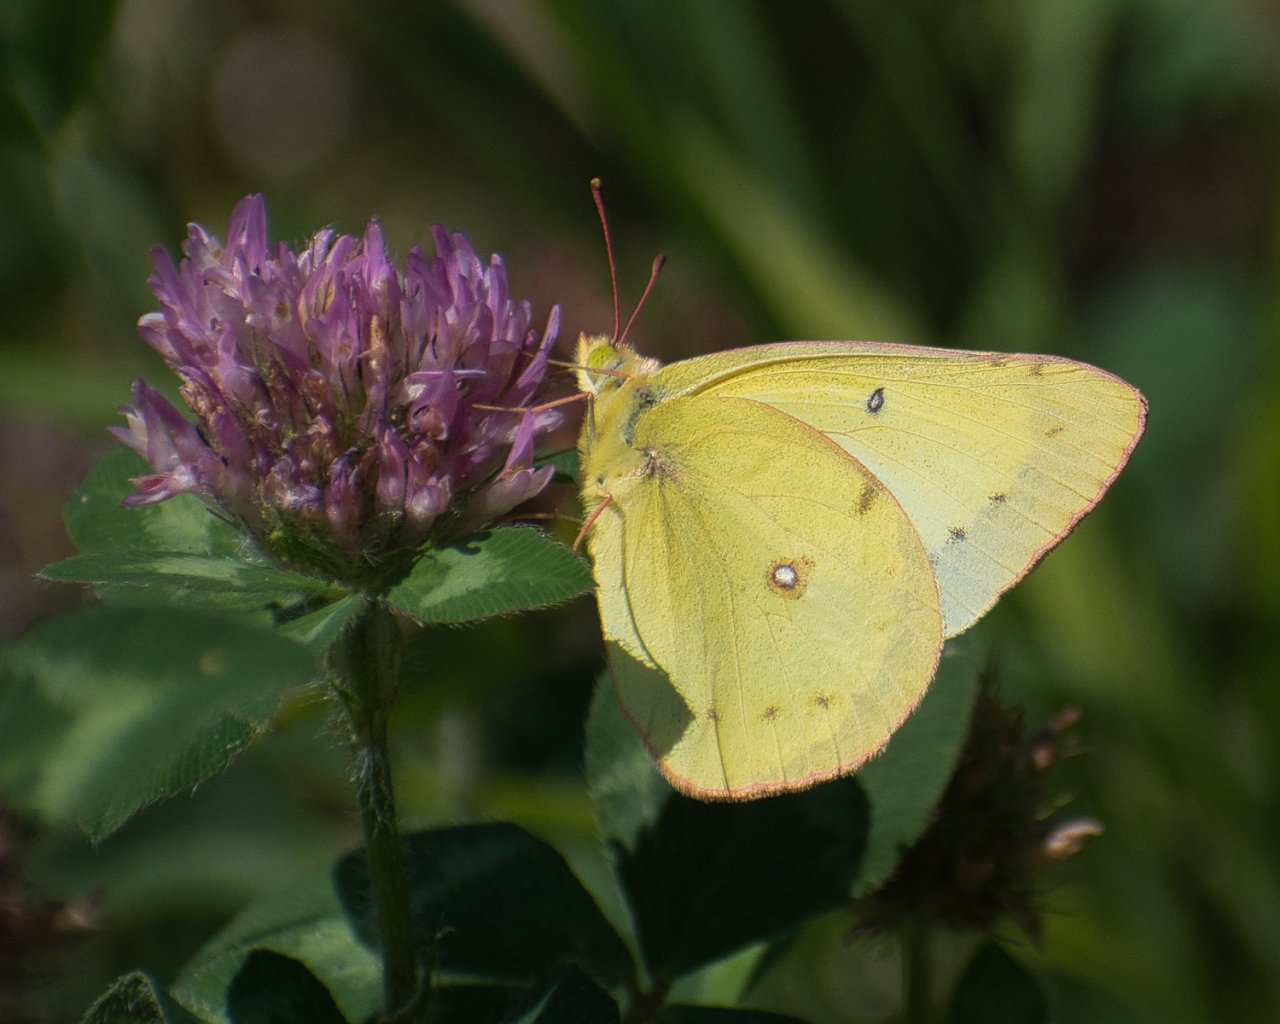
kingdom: Animalia
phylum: Arthropoda
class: Insecta
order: Lepidoptera
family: Pieridae
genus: Colias
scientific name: Colias philodice
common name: Clouded Sulphur
